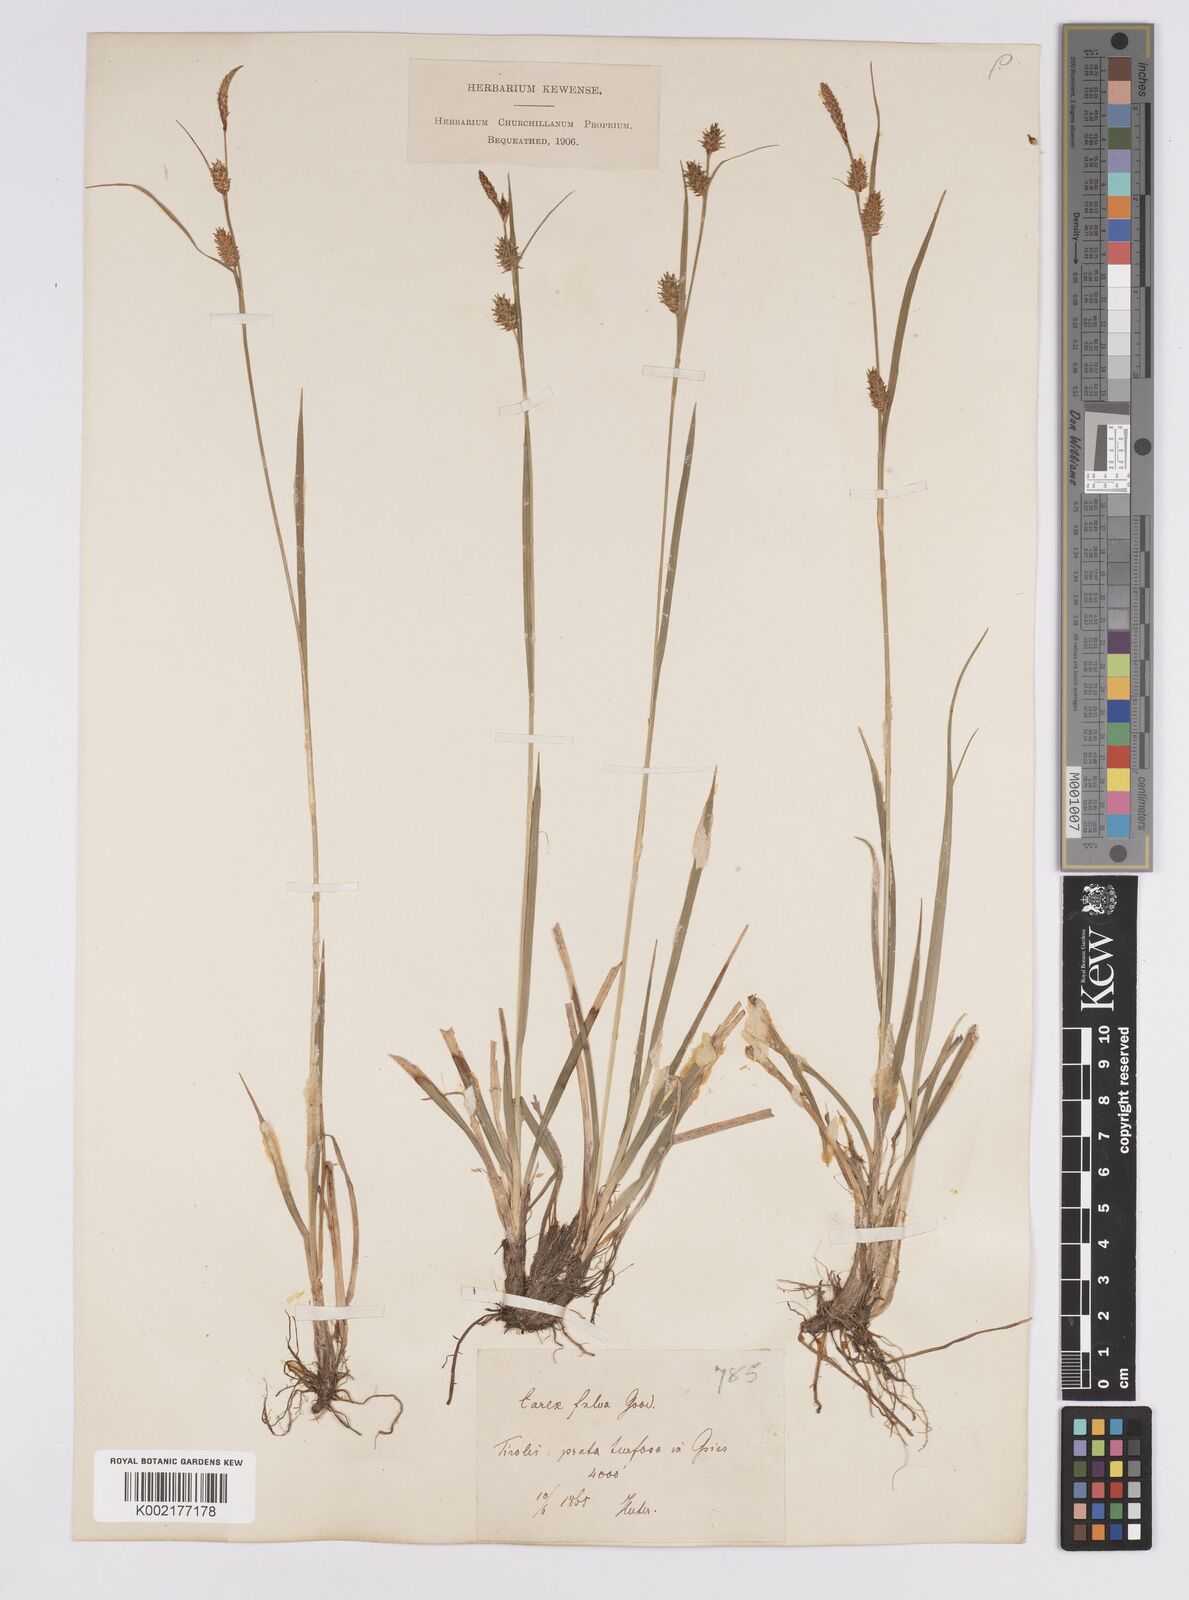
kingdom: Plantae
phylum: Tracheophyta
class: Liliopsida
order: Poales
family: Cyperaceae
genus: Carex
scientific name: Carex hostiana
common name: Tawny sedge
